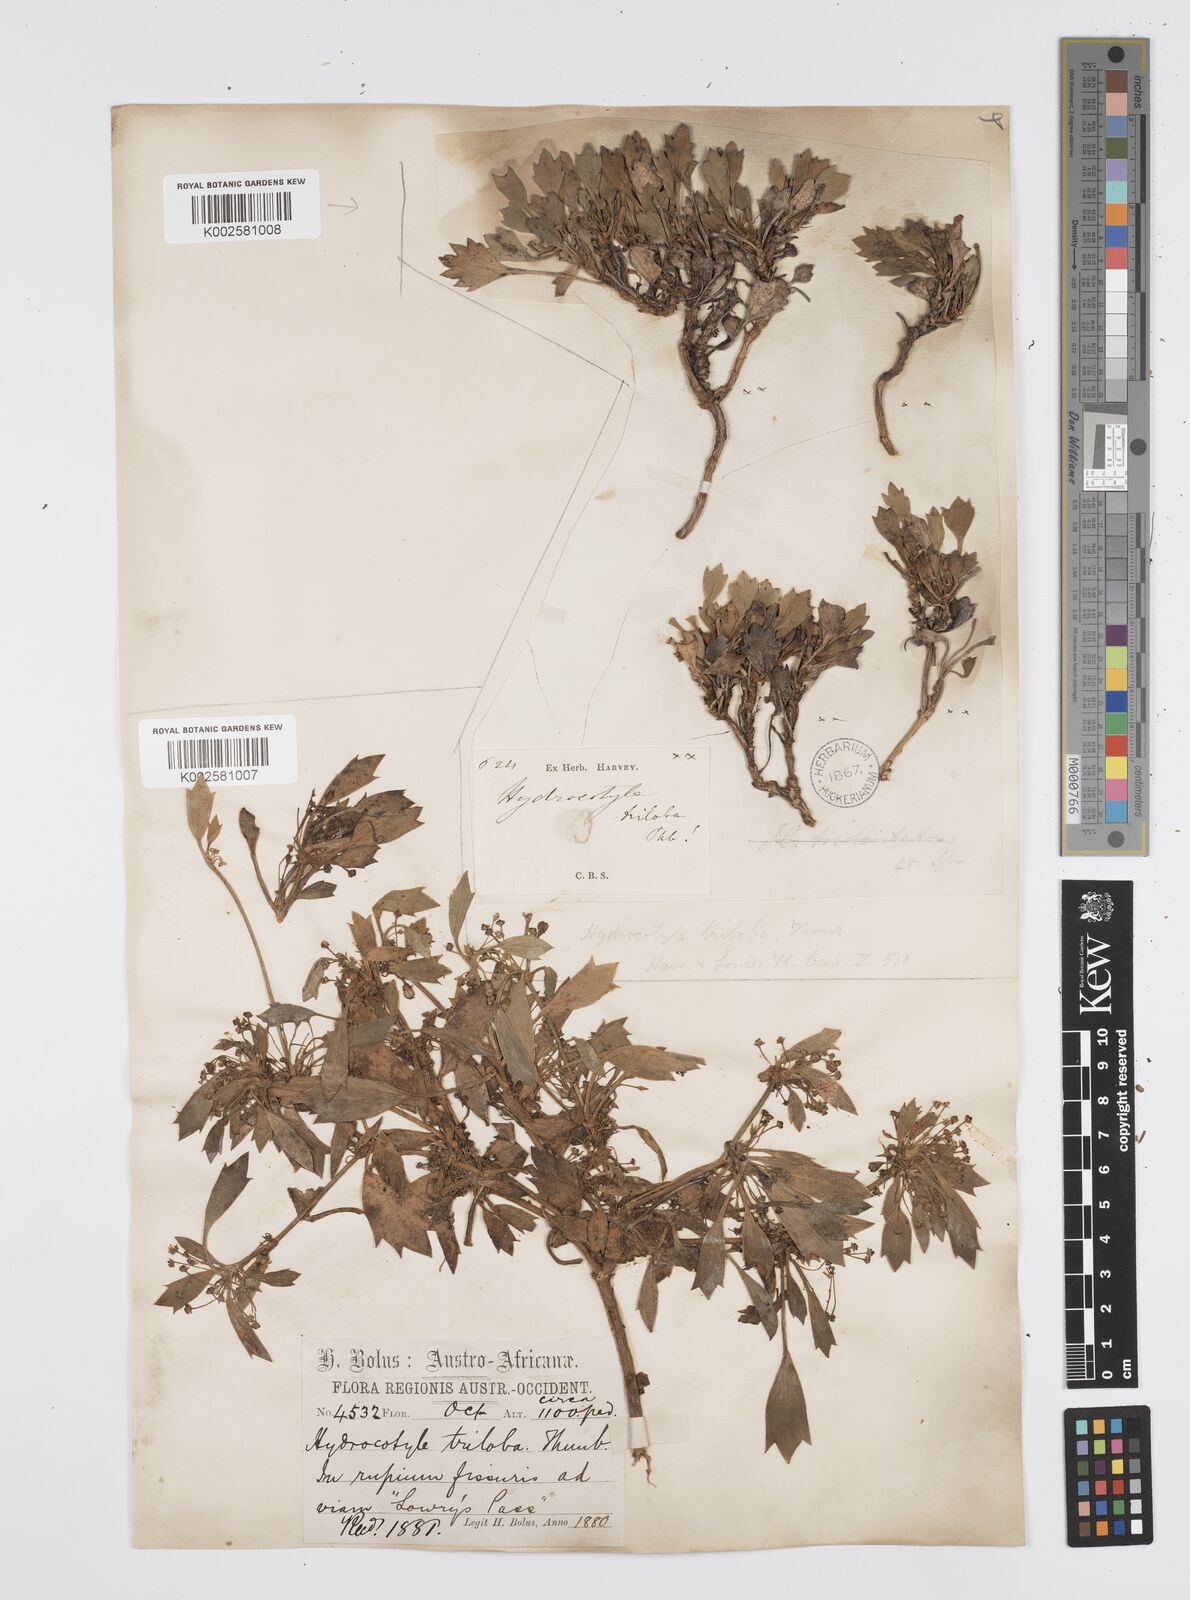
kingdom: Plantae
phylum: Tracheophyta
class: Magnoliopsida
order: Apiales
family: Apiaceae
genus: Centella
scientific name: Centella triloba
